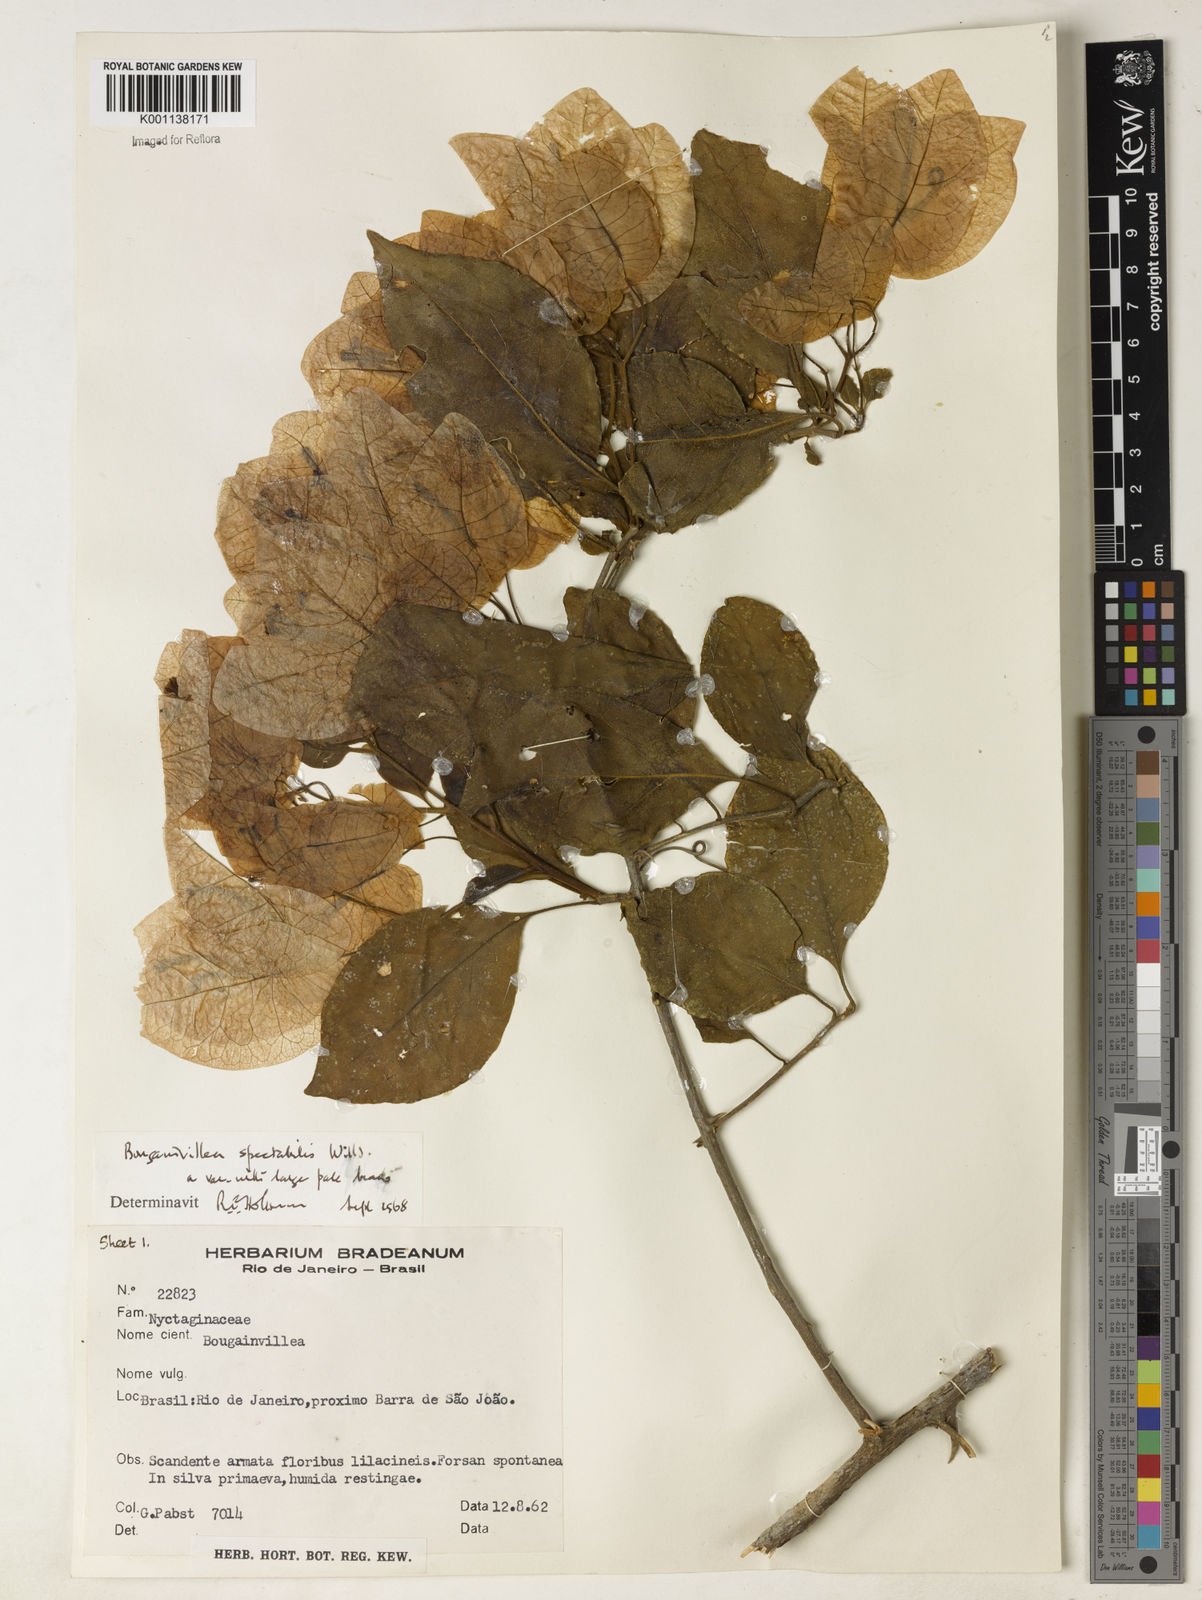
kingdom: Plantae
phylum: Tracheophyta
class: Magnoliopsida
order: Caryophyllales
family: Nyctaginaceae
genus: Bougainvillea
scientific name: Bougainvillea spectabilis
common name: Great bougainvillea
